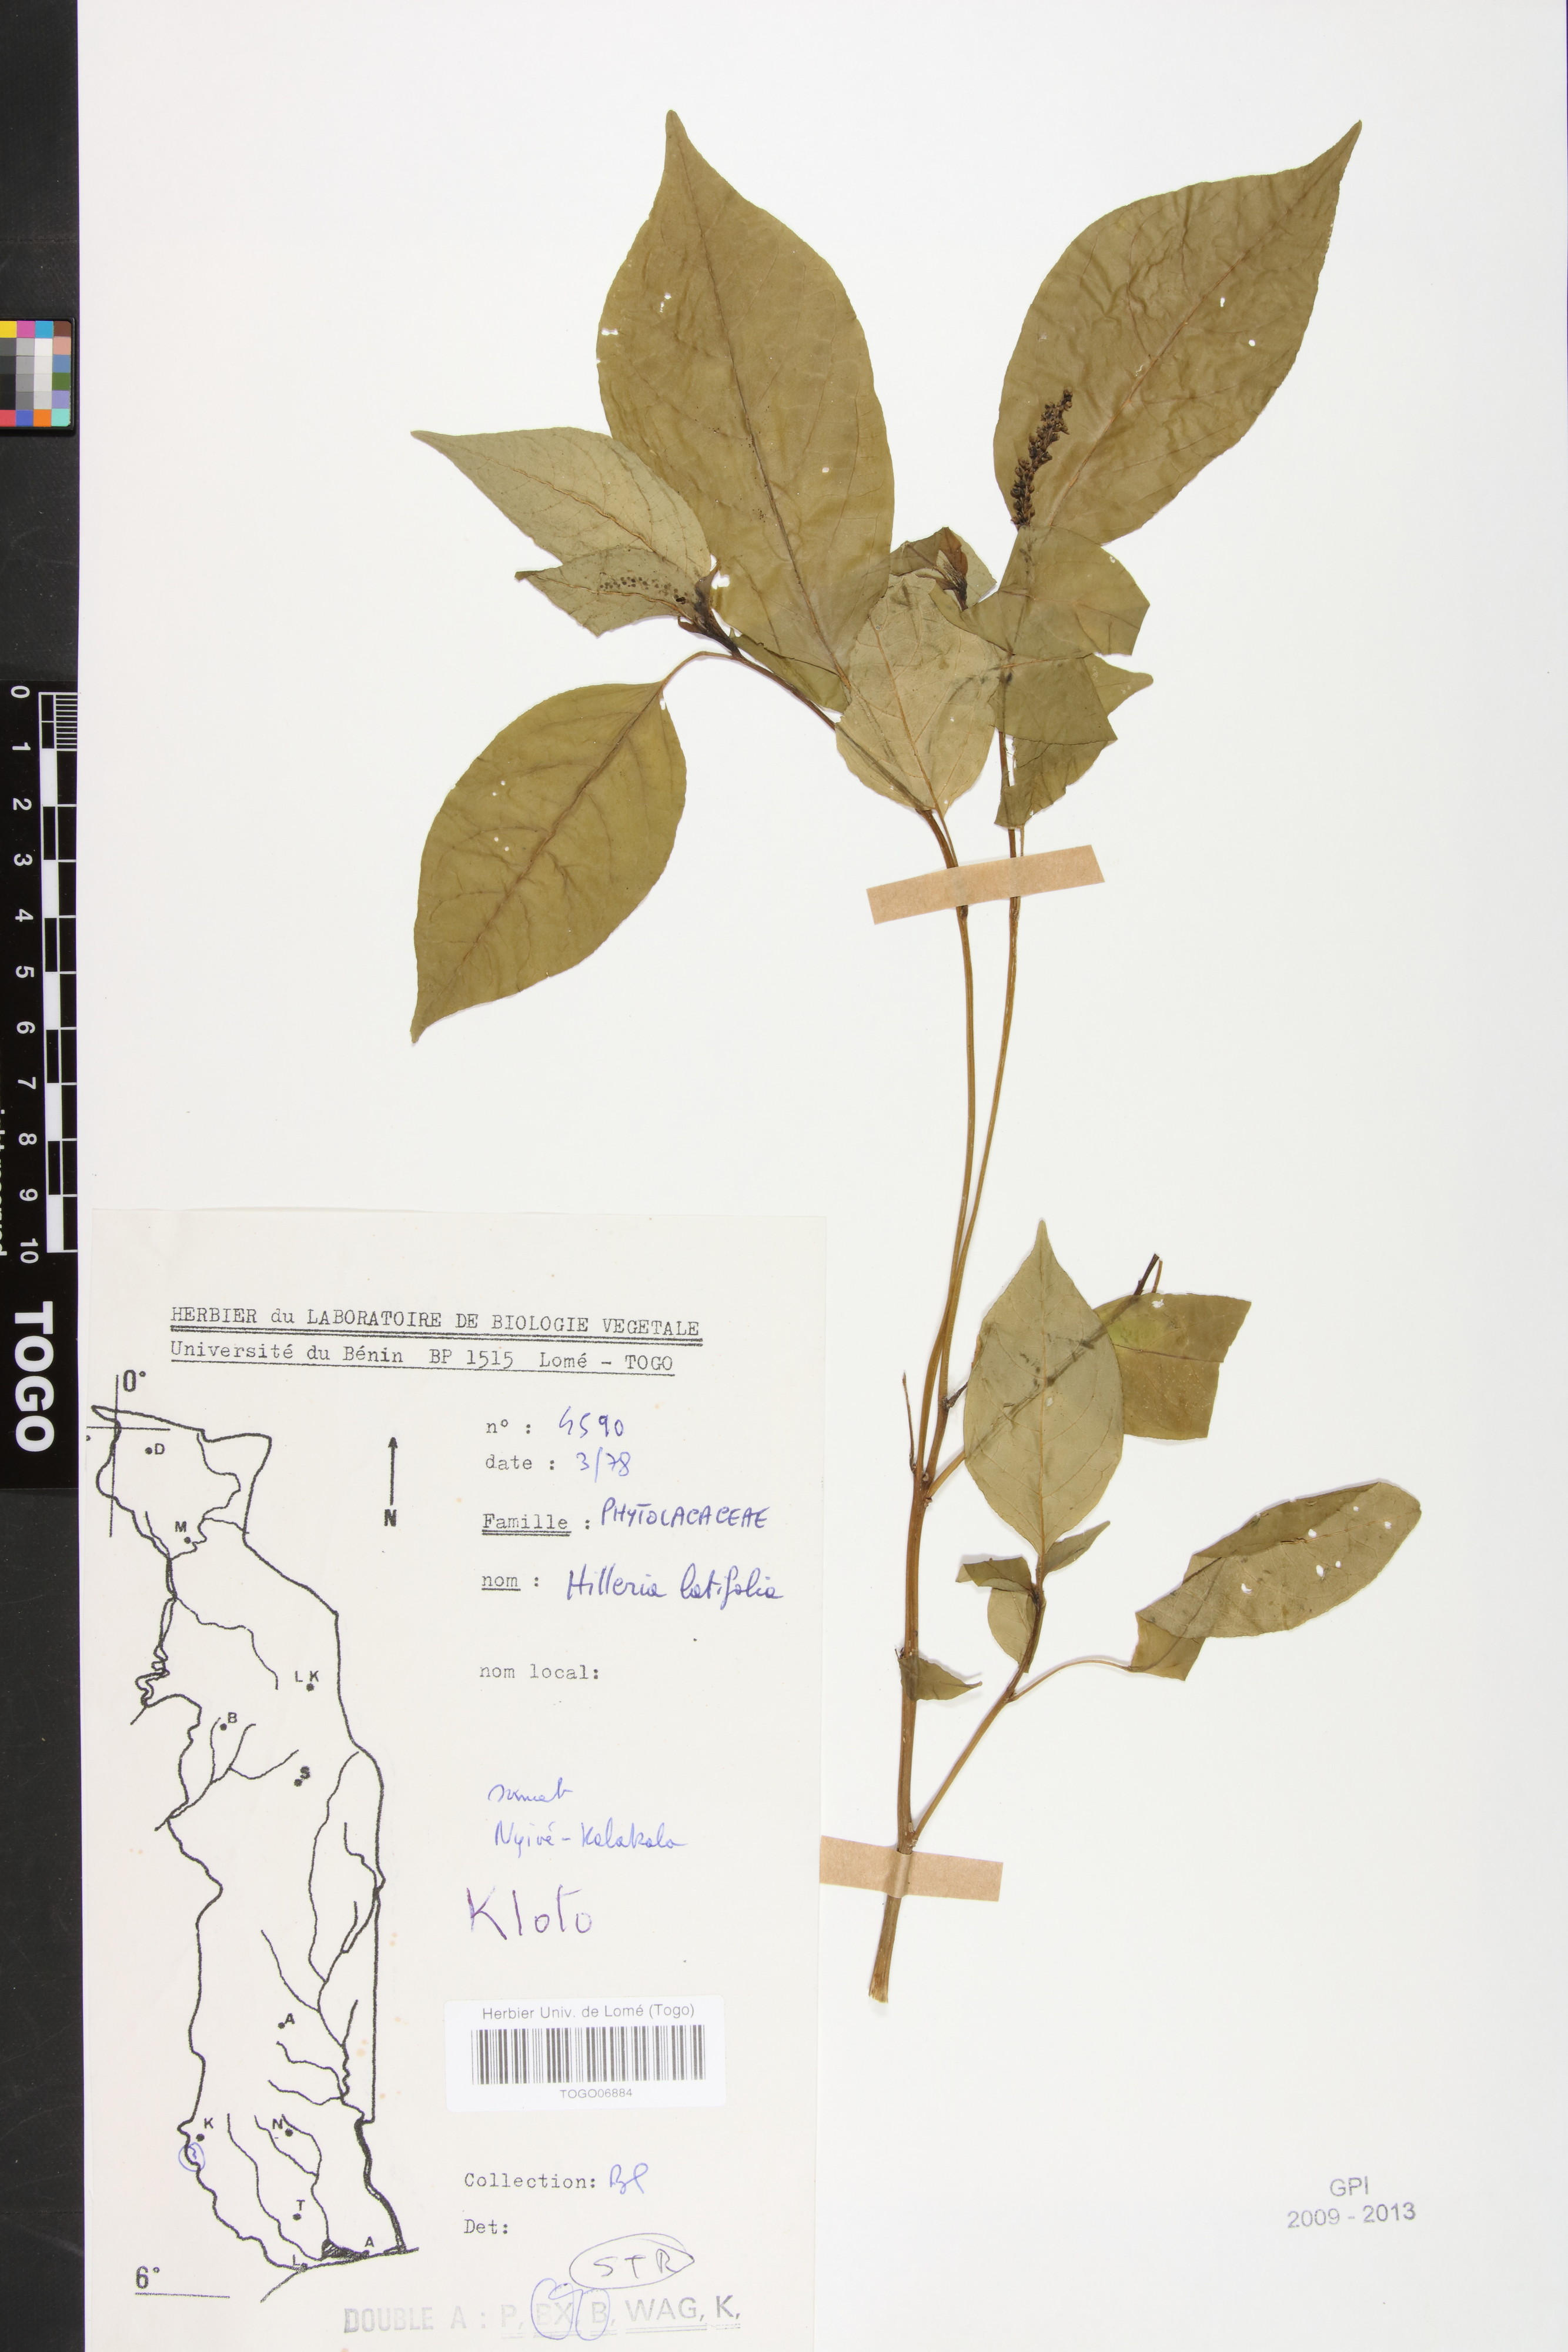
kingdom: Plantae
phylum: Tracheophyta
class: Magnoliopsida
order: Caryophyllales
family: Phytolaccaceae
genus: Hilleria
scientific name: Hilleria latifolia
